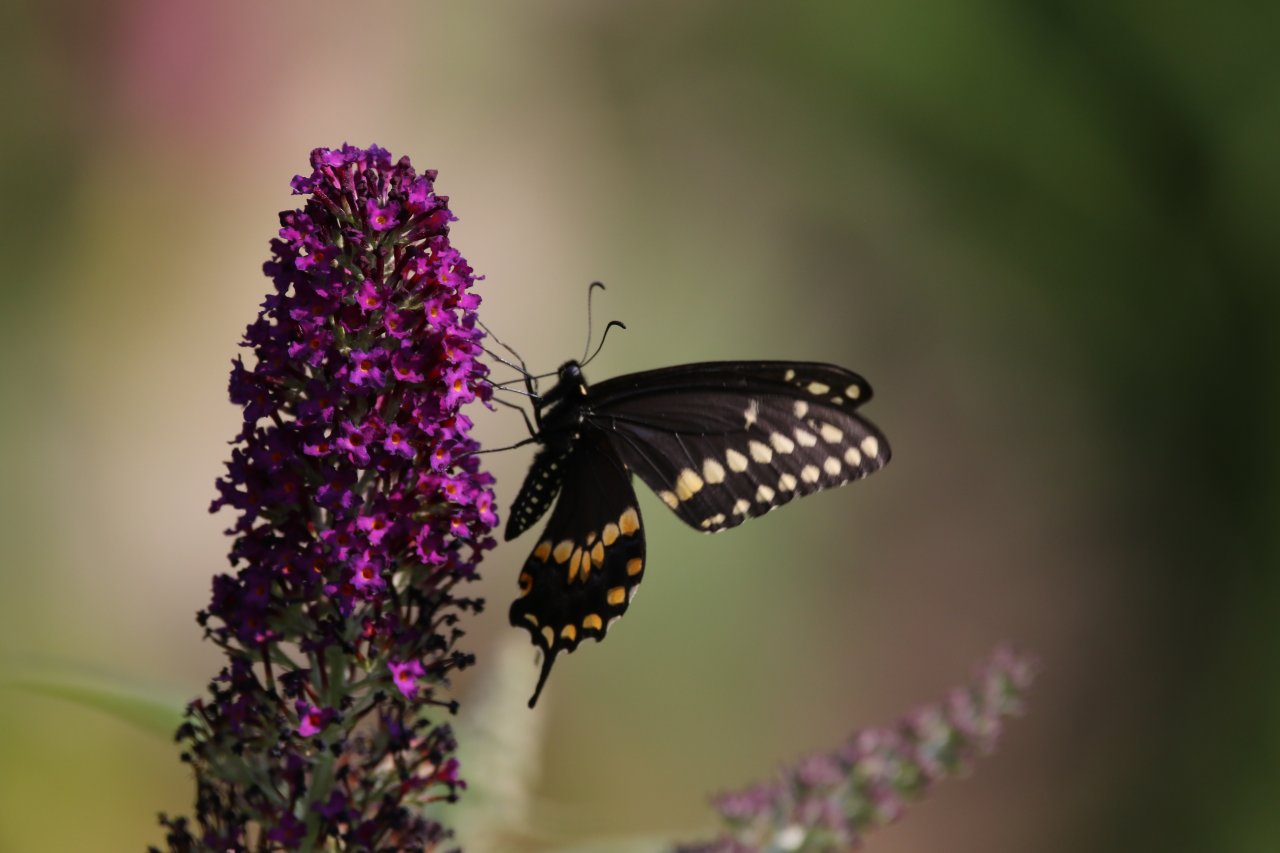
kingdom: Animalia
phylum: Arthropoda
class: Insecta
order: Lepidoptera
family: Papilionidae
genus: Papilio
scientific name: Papilio polyxenes
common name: Black Swallowtail
